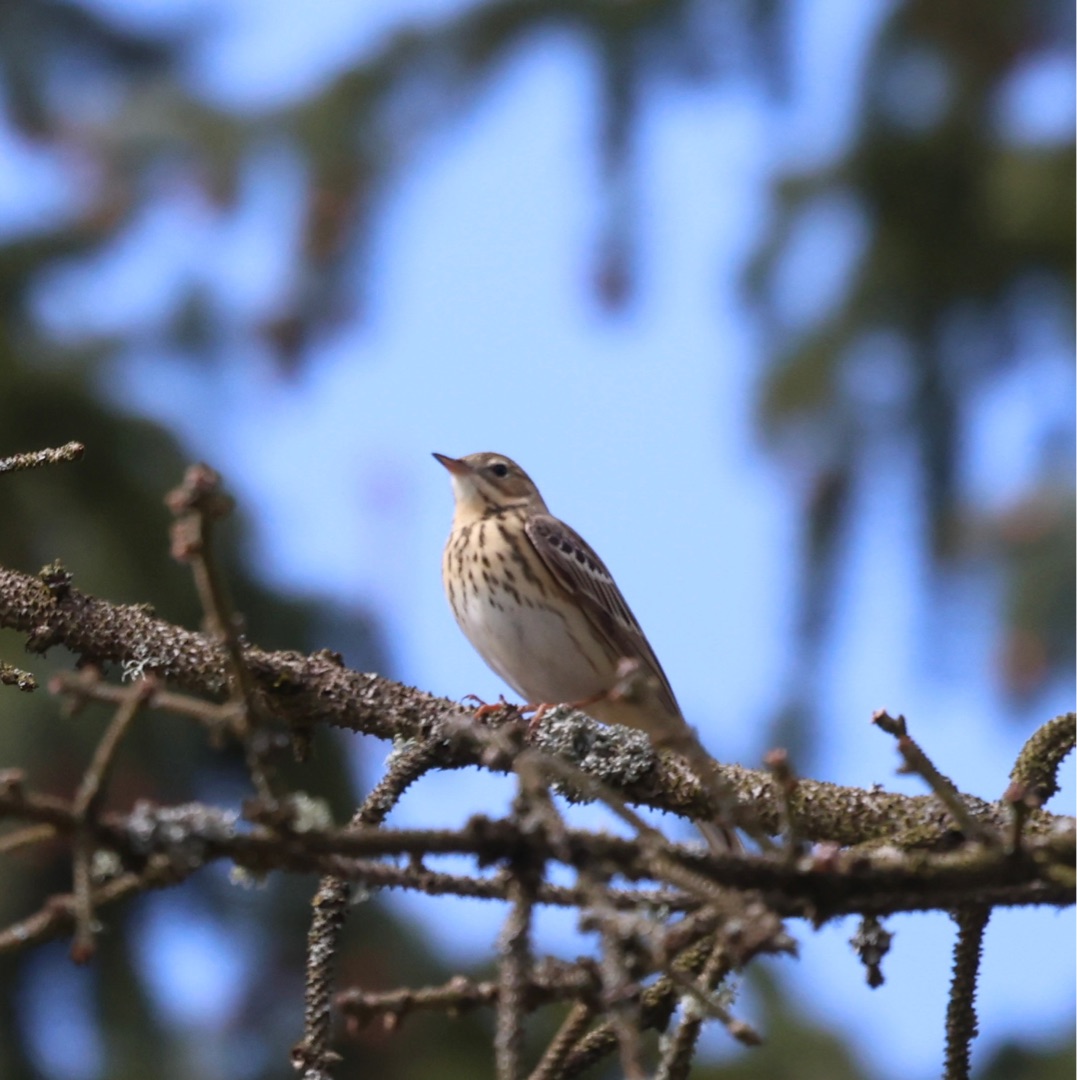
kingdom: Animalia
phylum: Chordata
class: Aves
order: Passeriformes
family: Motacillidae
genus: Anthus
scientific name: Anthus trivialis
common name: Skovpiber
